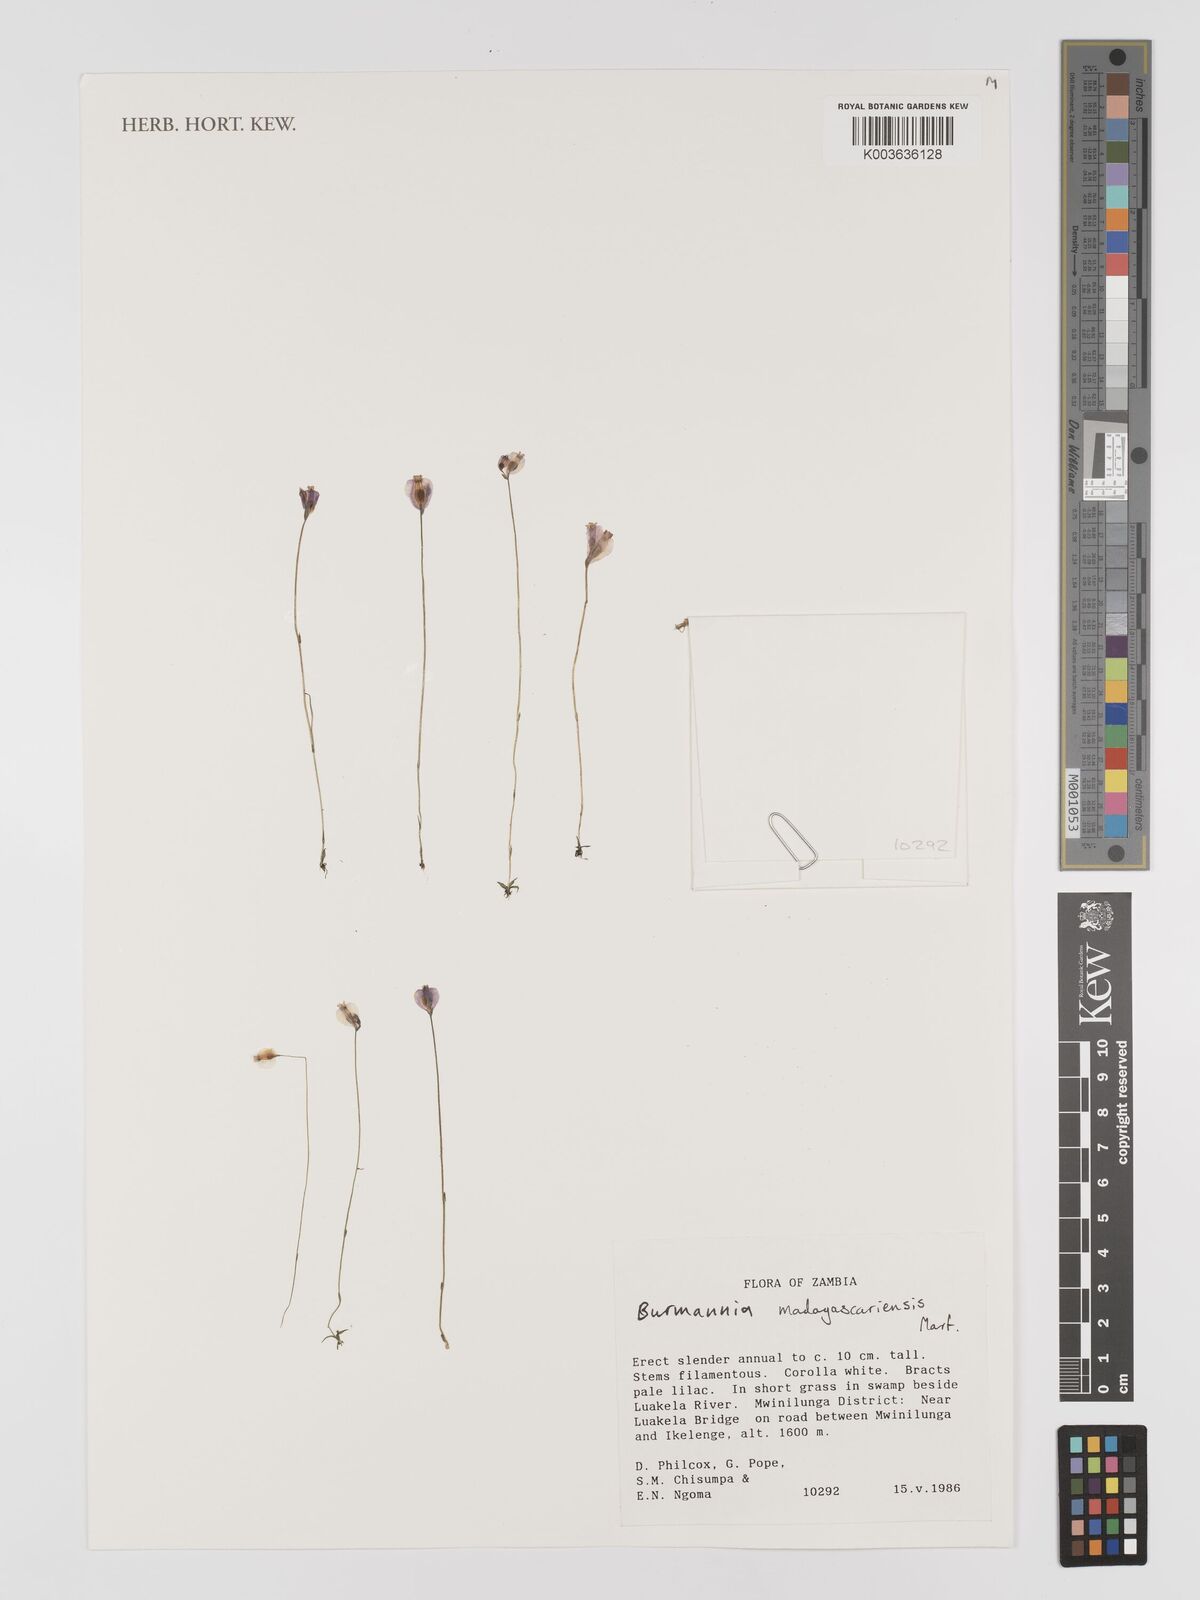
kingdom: Plantae
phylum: Tracheophyta
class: Liliopsida
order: Dioscoreales
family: Burmanniaceae
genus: Burmannia
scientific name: Burmannia madagascariensis
